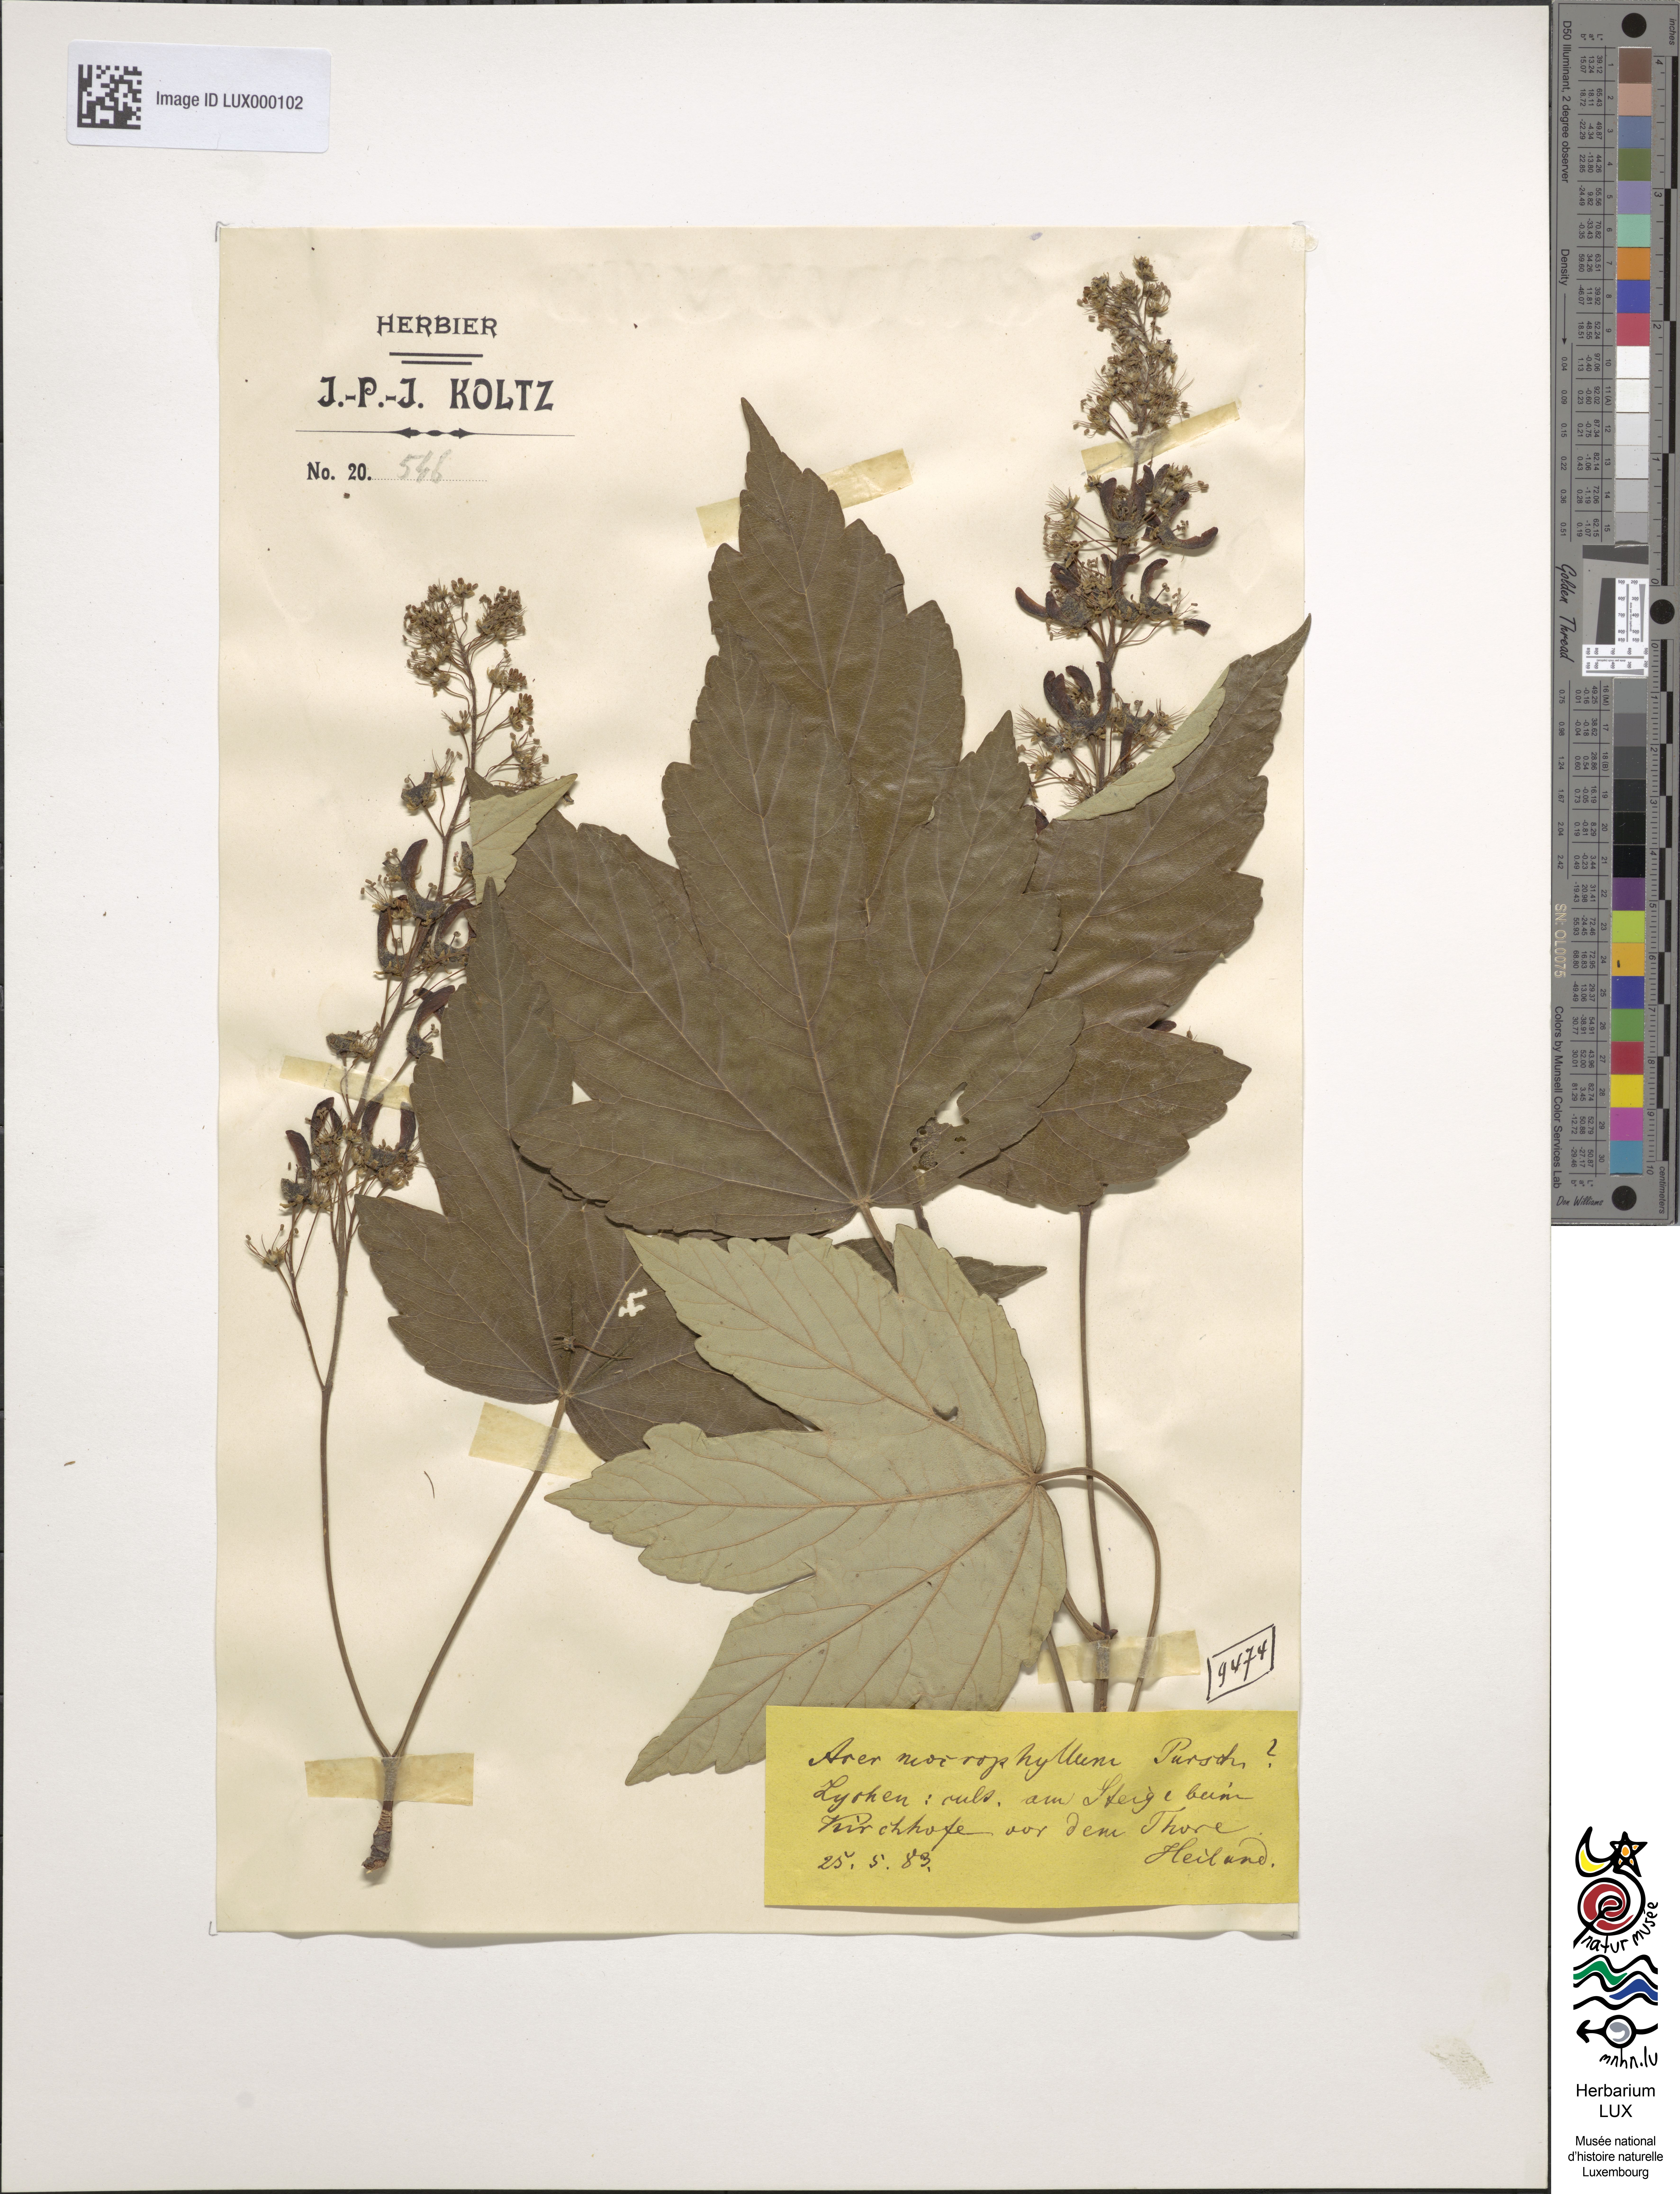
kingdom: Plantae
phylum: Tracheophyta
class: Magnoliopsida
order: Sapindales
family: Sapindaceae
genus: Acer
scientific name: Acer macrophyllum
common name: Oregon maple
